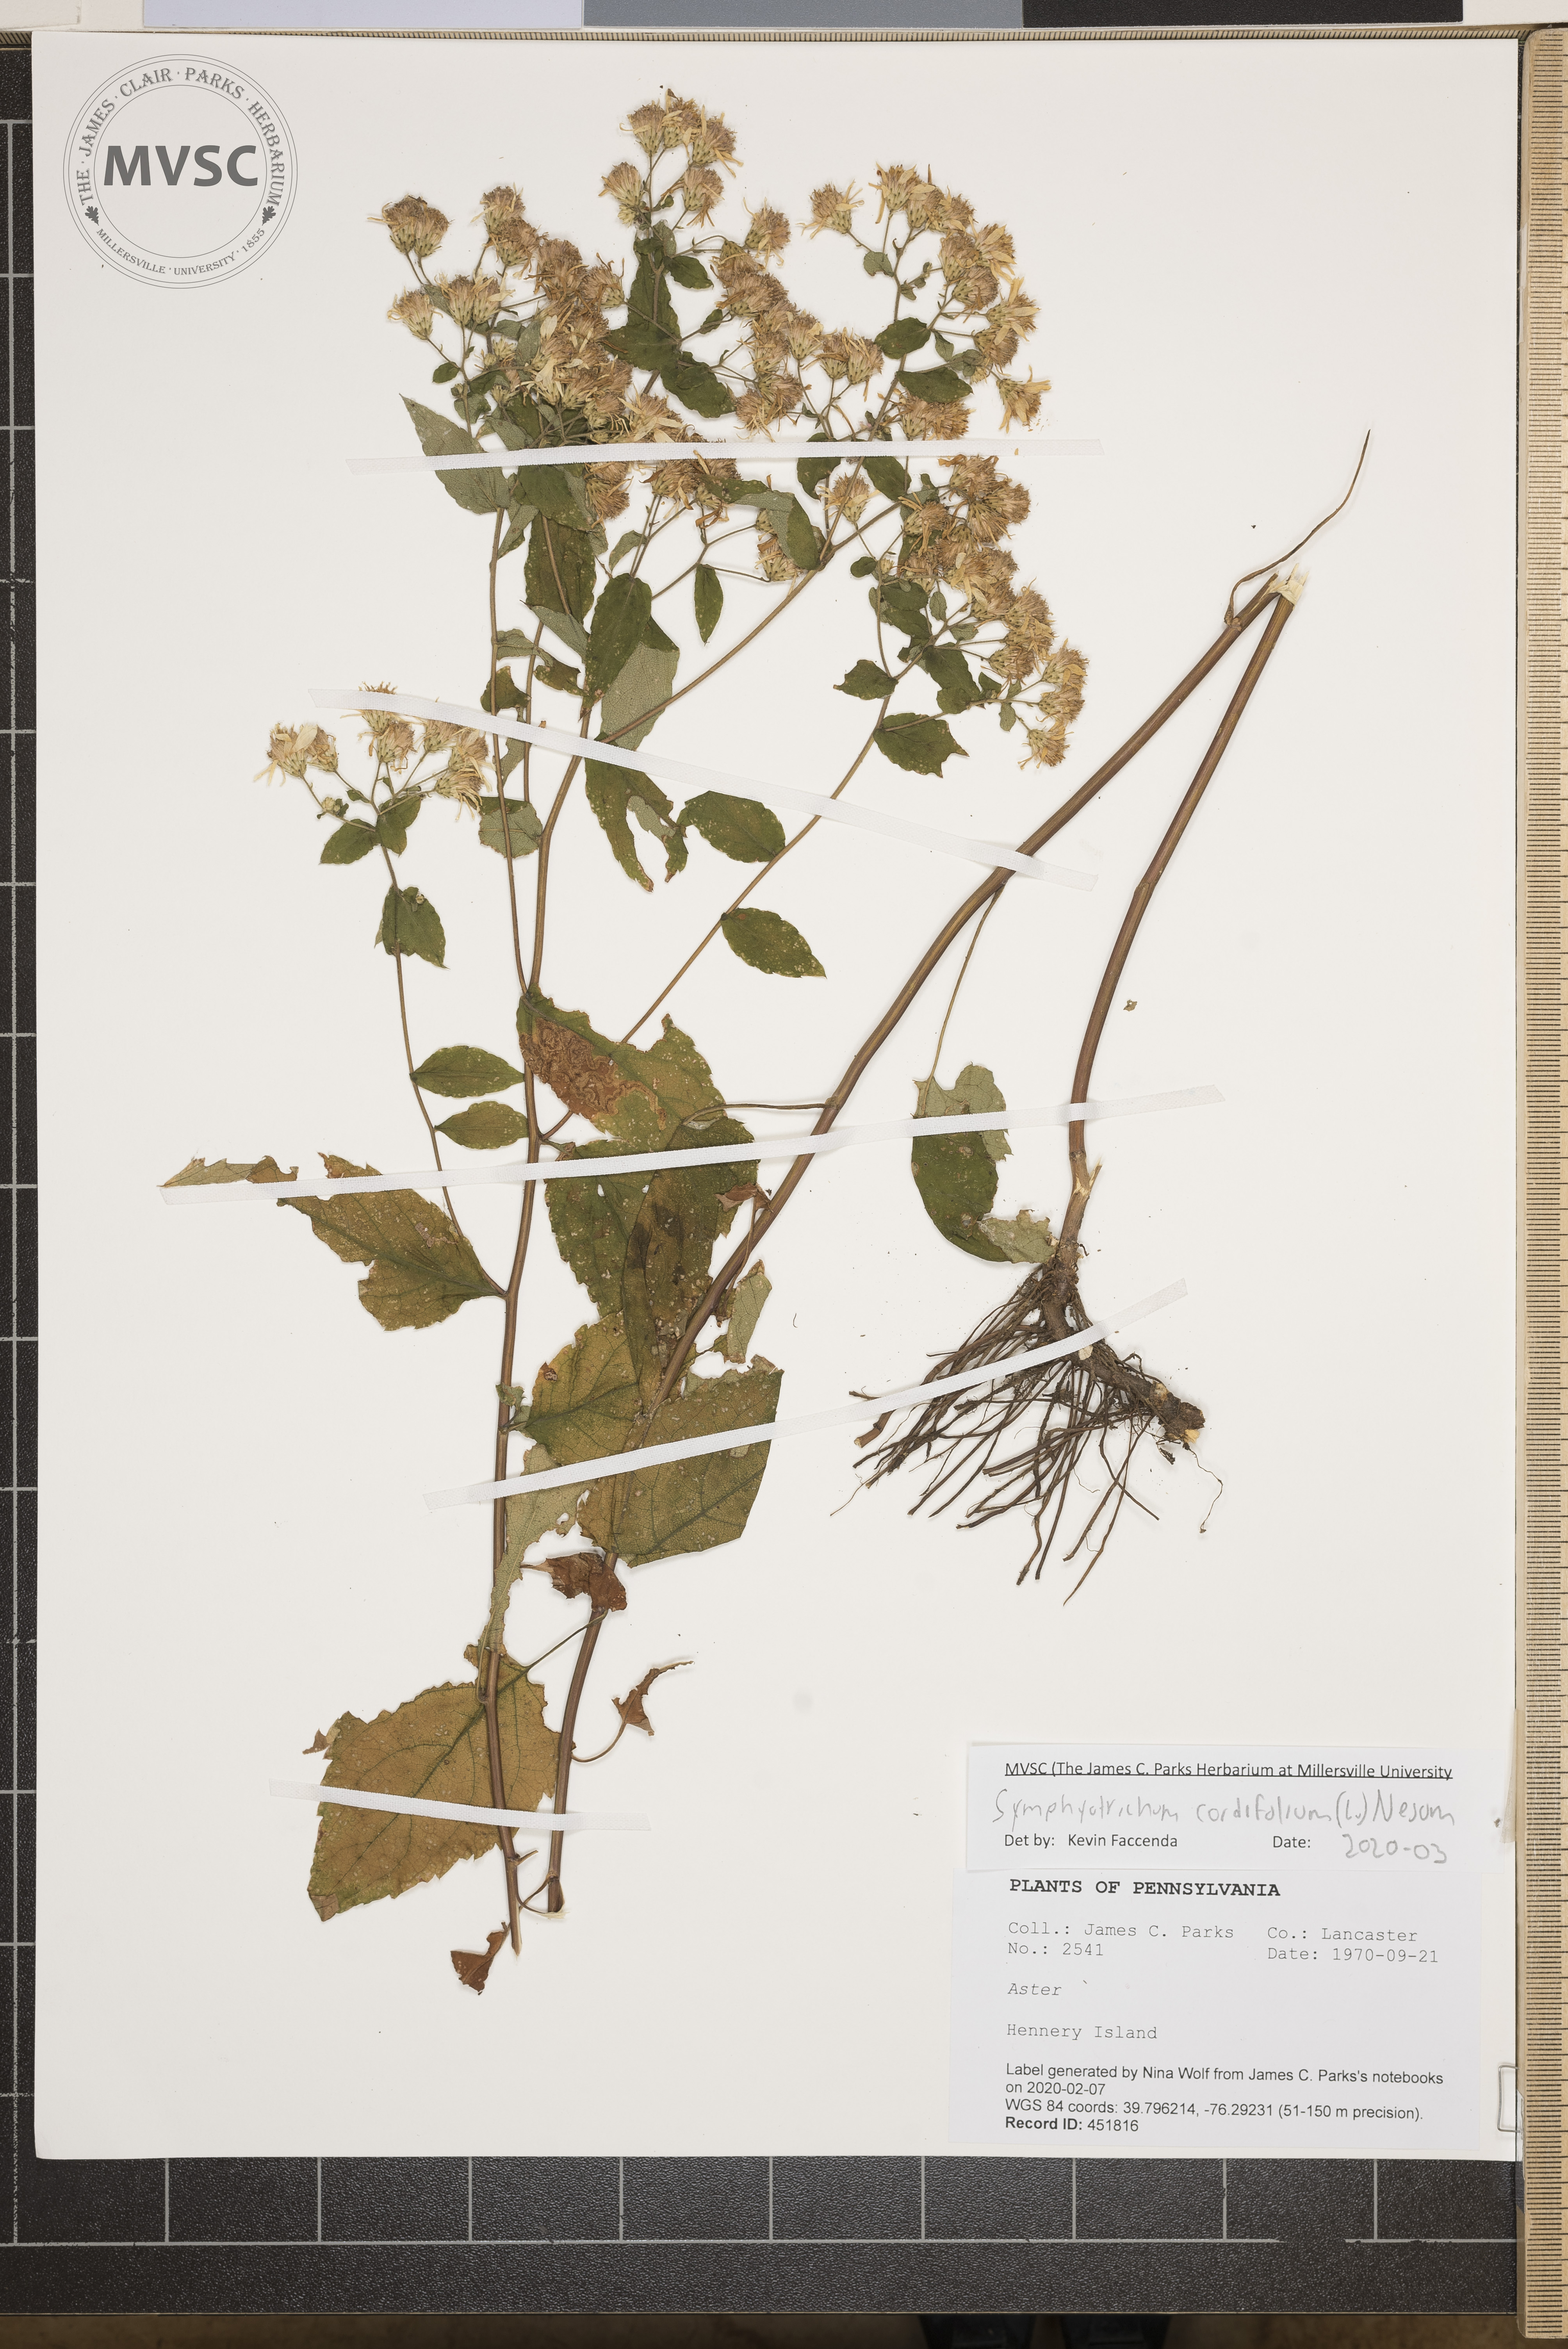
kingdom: Plantae
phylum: Tracheophyta
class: Magnoliopsida
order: Asterales
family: Asteraceae
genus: Symphyotrichum
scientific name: Symphyotrichum cordifolium
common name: Beeweed
